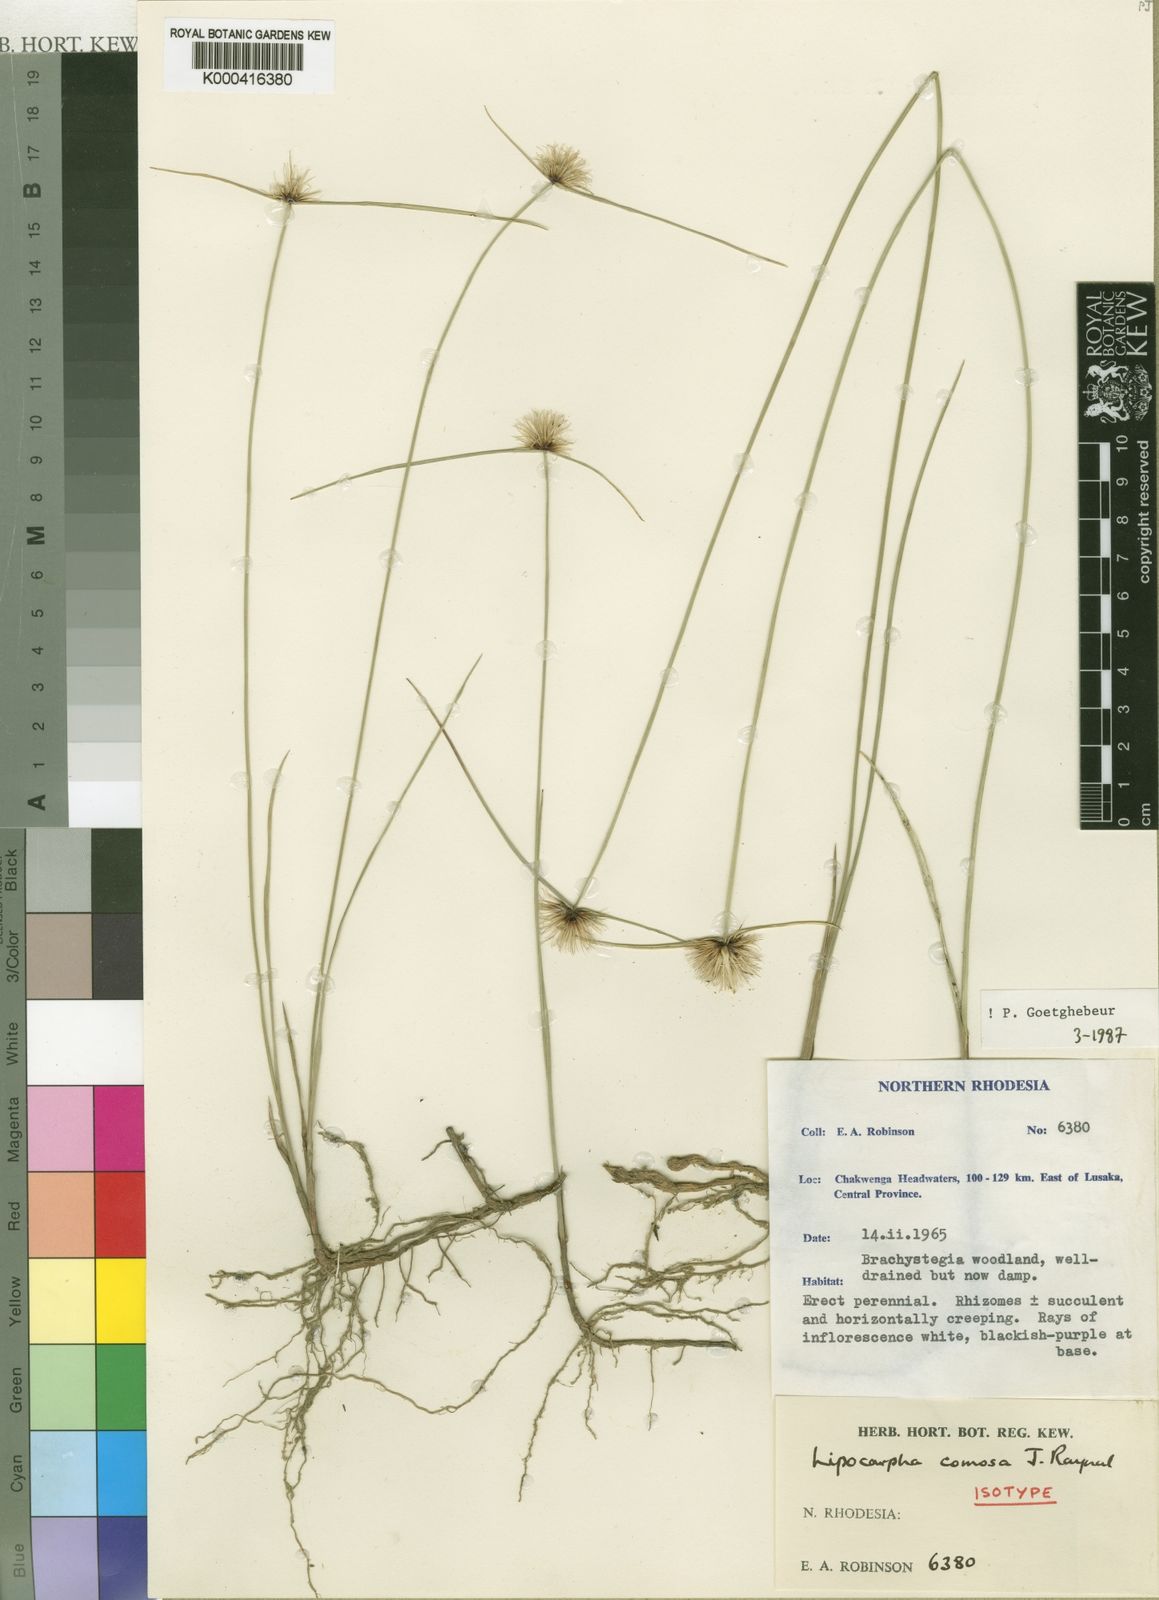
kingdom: Plantae
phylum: Tracheophyta
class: Liliopsida
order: Poales
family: Cyperaceae
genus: Cyperus
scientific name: Cyperus lipocomosus
